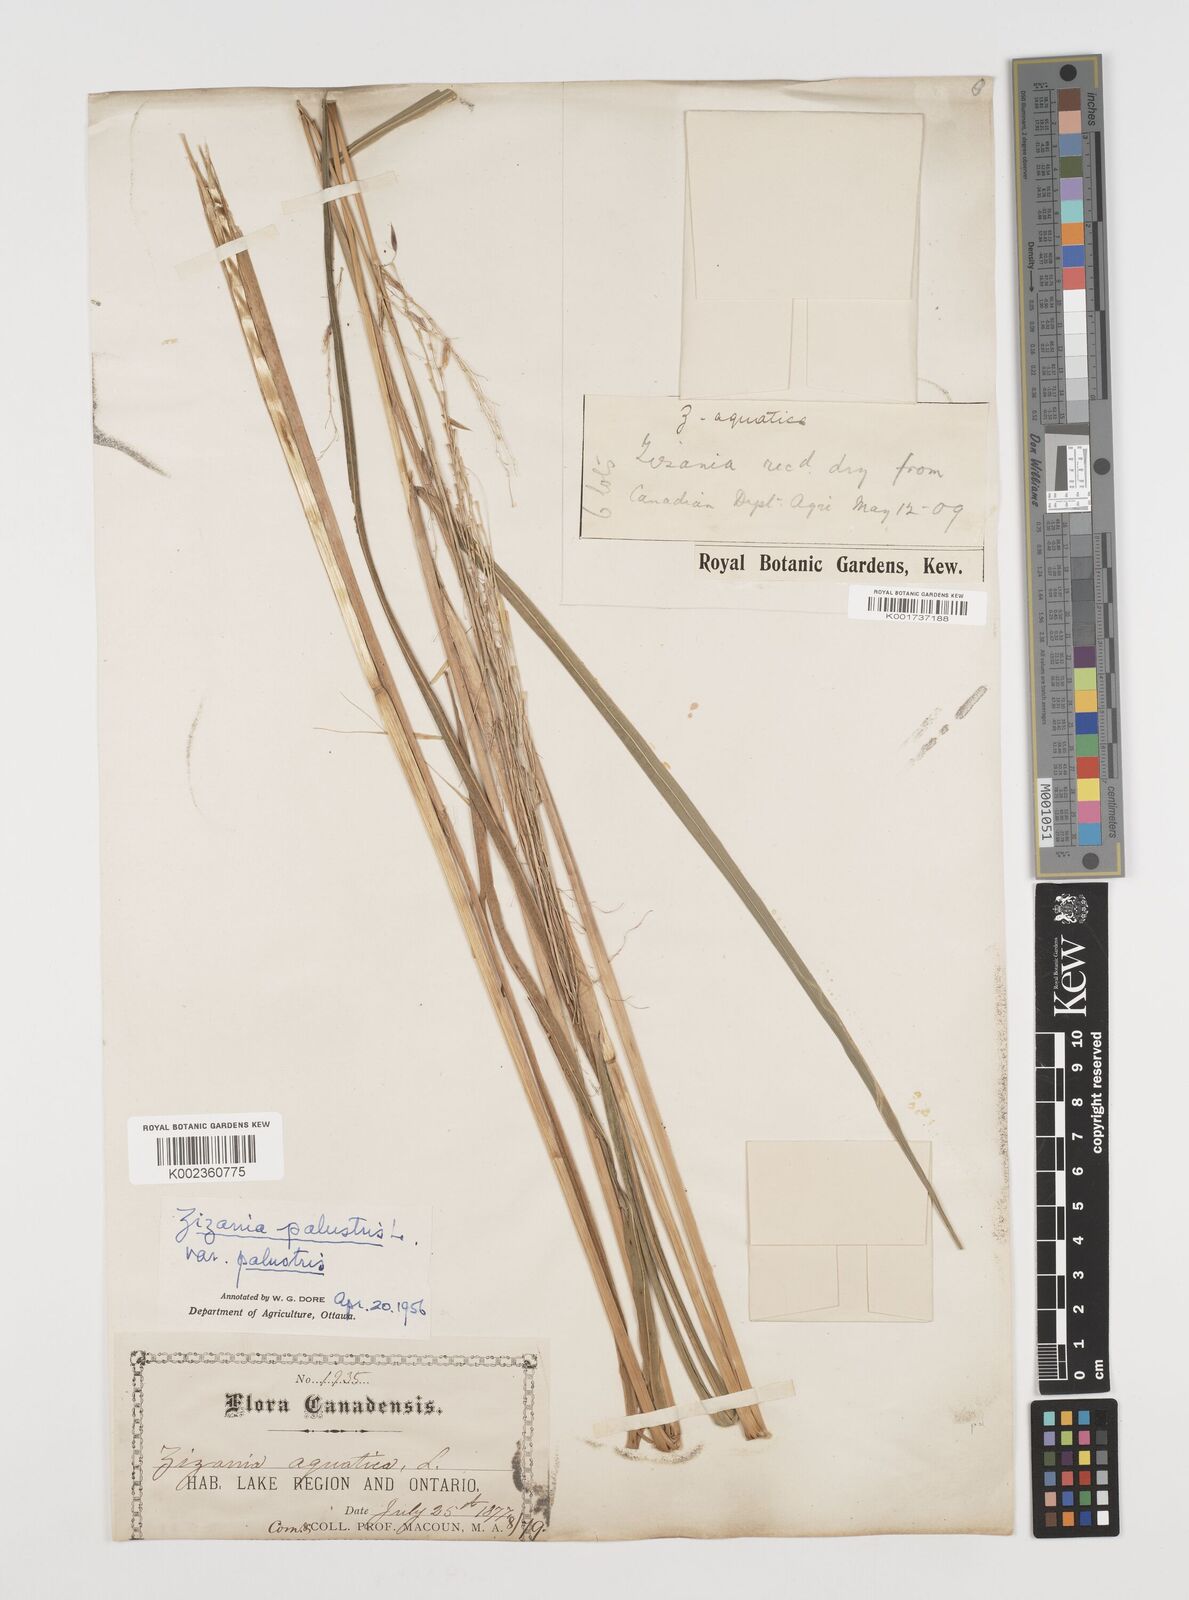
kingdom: Plantae
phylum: Tracheophyta
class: Liliopsida
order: Poales
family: Poaceae
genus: Zizania
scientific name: Zizania palustris
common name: Northern wild rice
